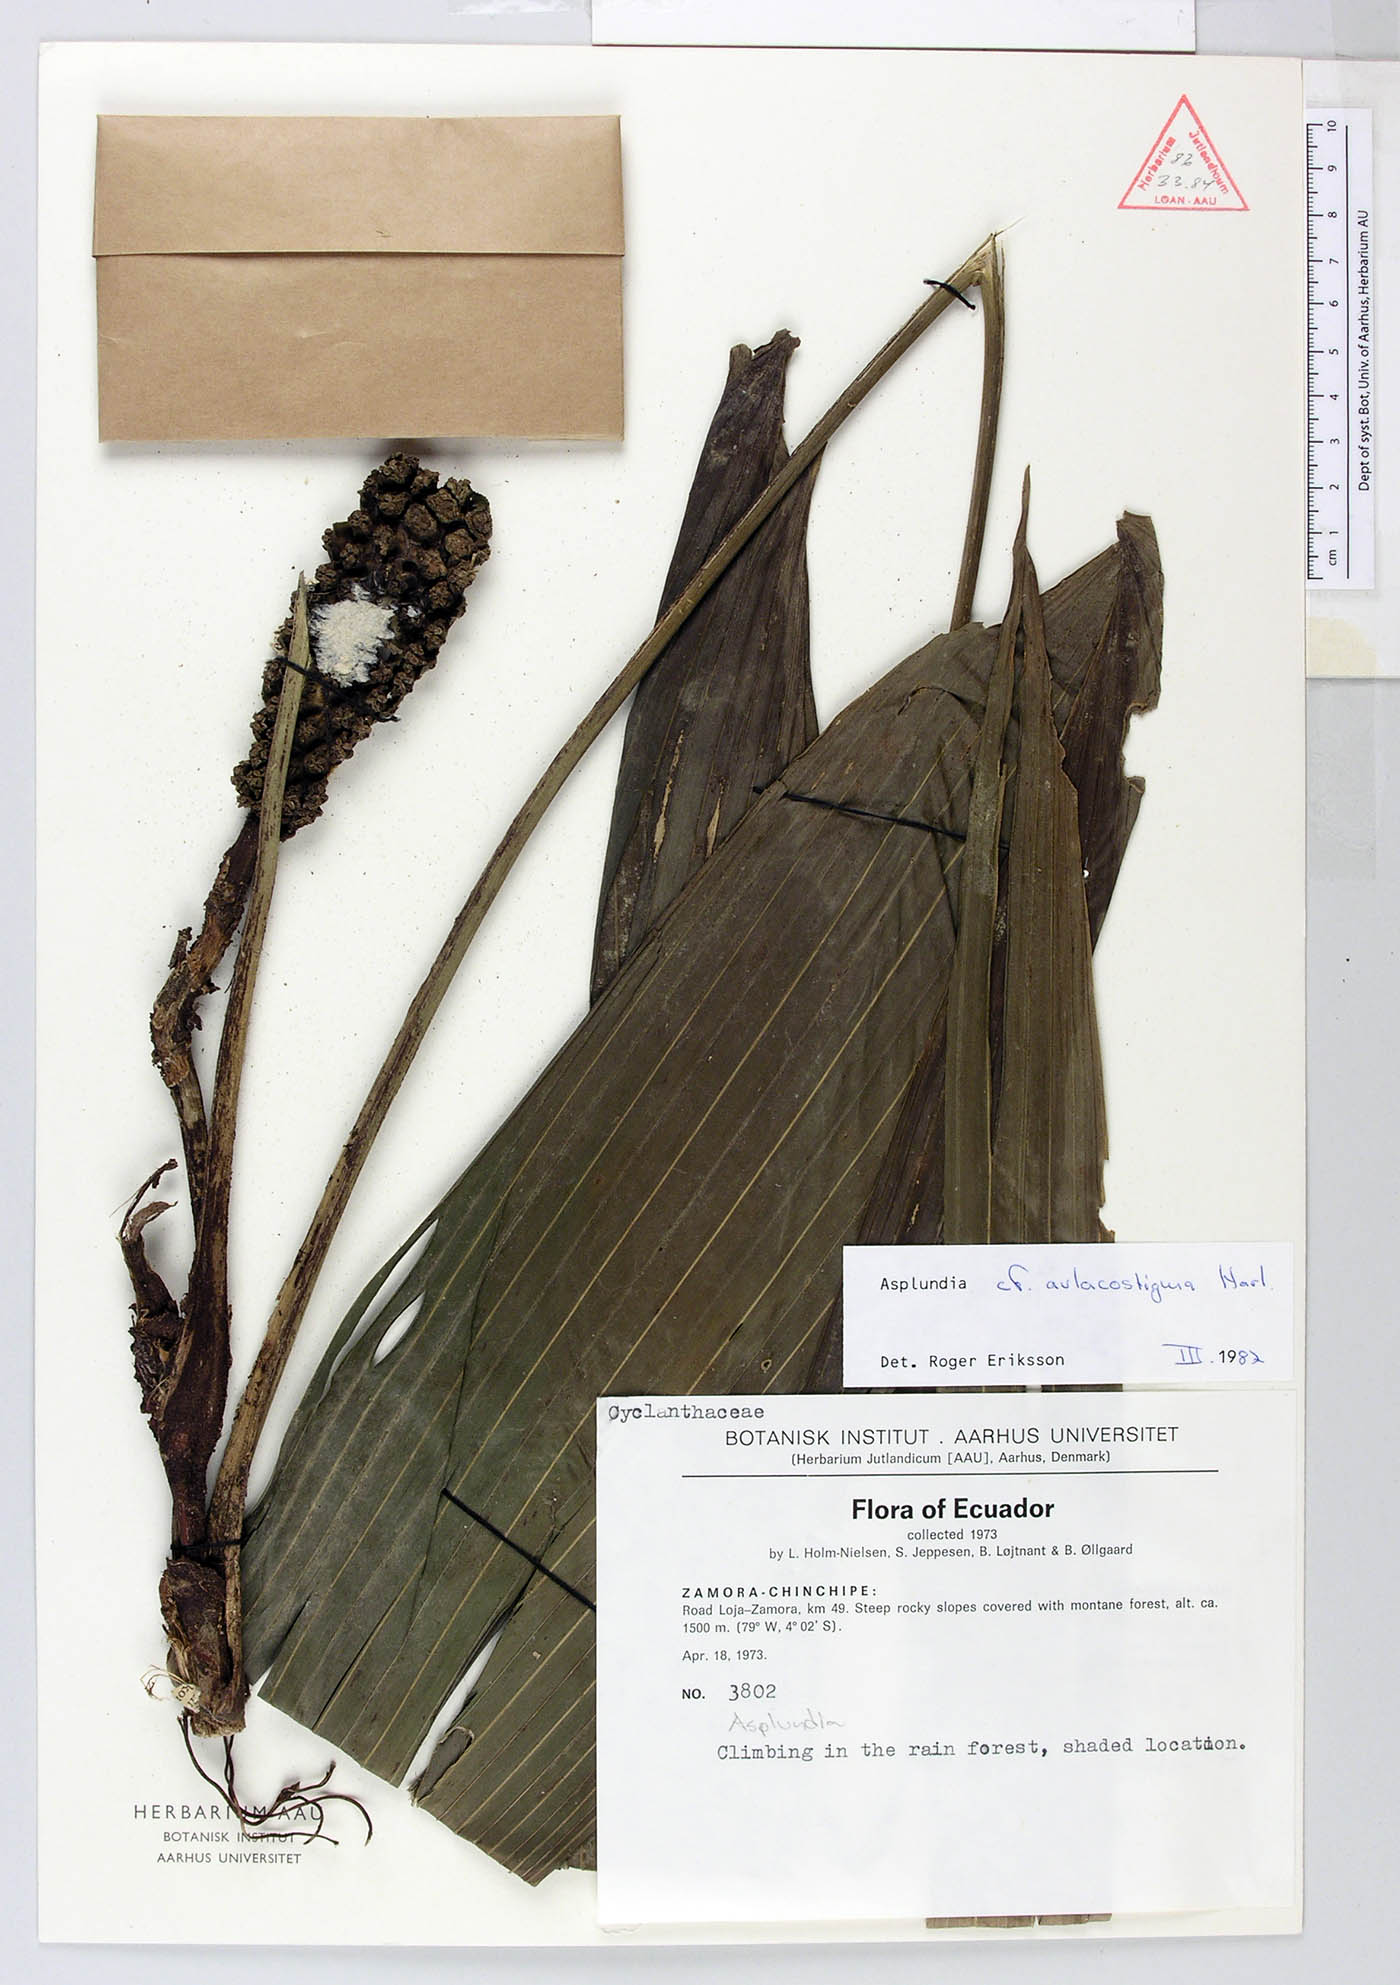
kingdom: Plantae
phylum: Tracheophyta
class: Liliopsida
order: Pandanales
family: Cyclanthaceae
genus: Asplundia
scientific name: Asplundia aulacostigma
